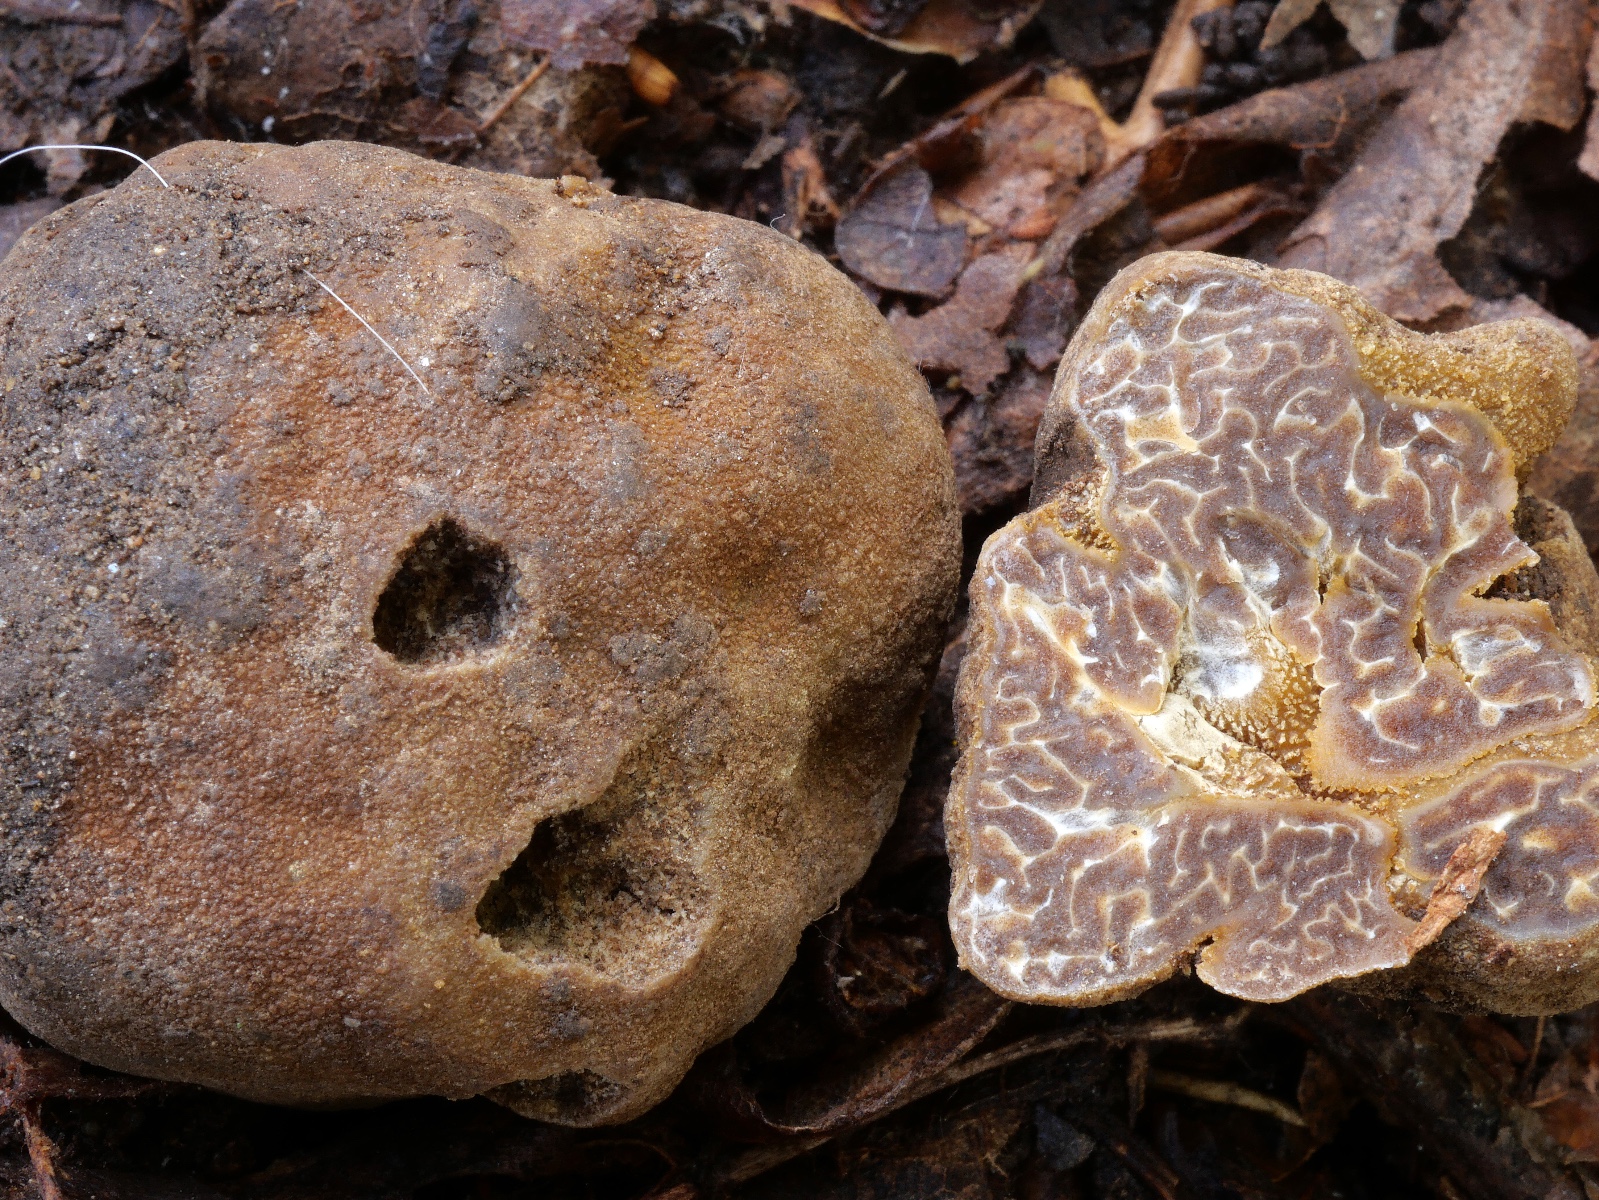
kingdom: Fungi
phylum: Ascomycota
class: Pezizomycetes
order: Pezizales
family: Tuberaceae
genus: Tuber
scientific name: Tuber
